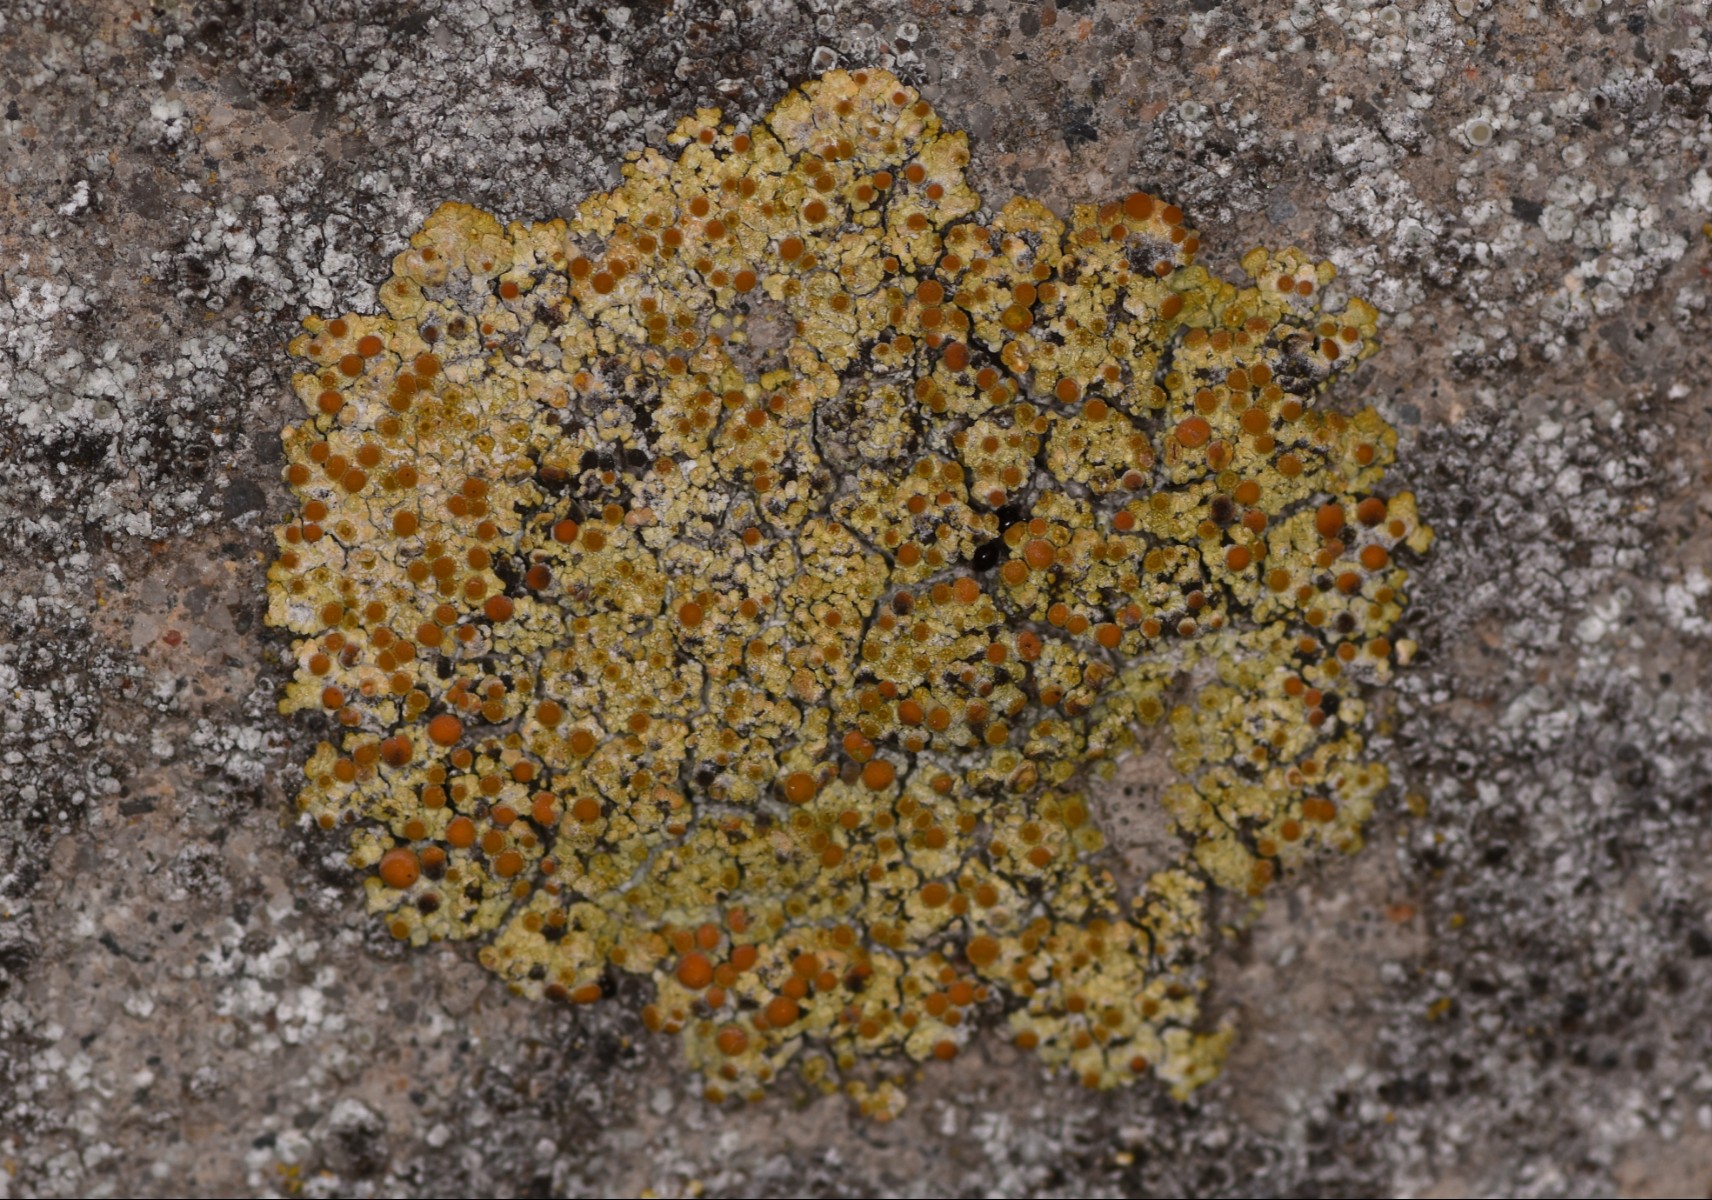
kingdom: Fungi
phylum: Ascomycota
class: Lecanoromycetes
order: Teloschistales
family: Teloschistaceae
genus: Calogaya
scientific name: Calogaya pusilla
